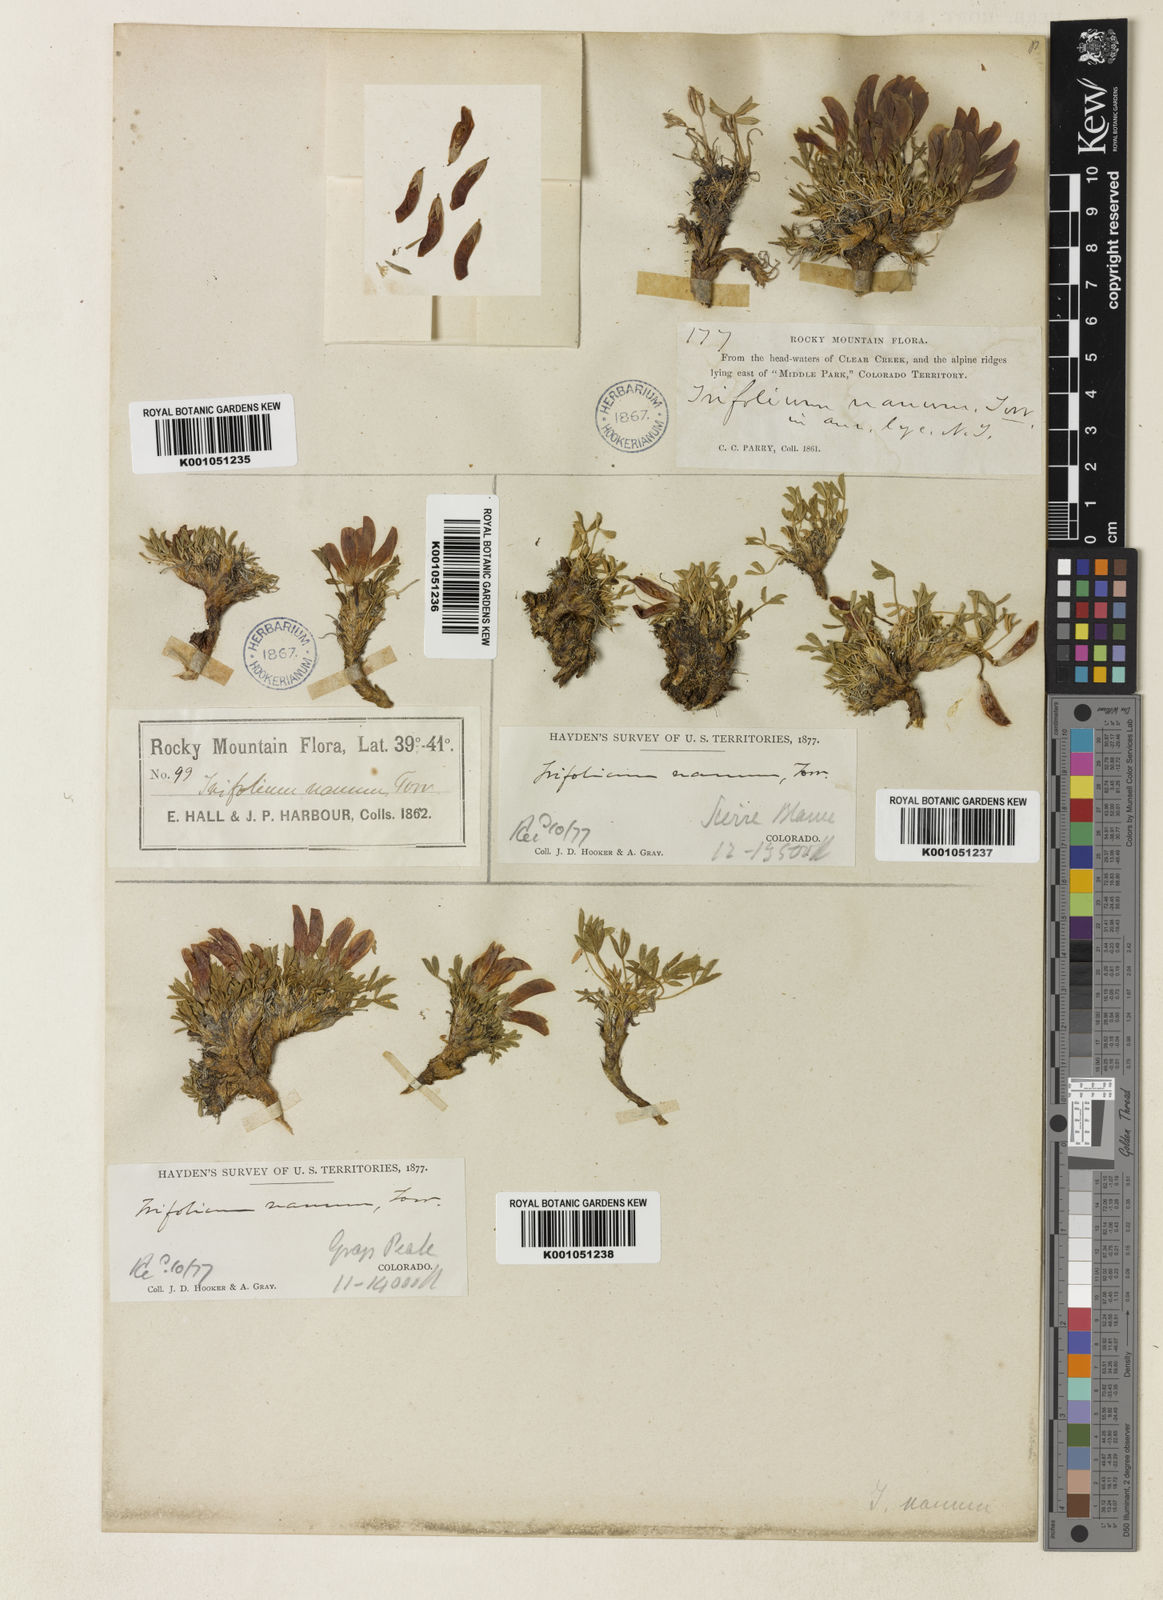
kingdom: Plantae
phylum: Tracheophyta
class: Magnoliopsida
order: Fabales
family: Fabaceae
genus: Trifolium
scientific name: Trifolium nanum
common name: Tundra clover
